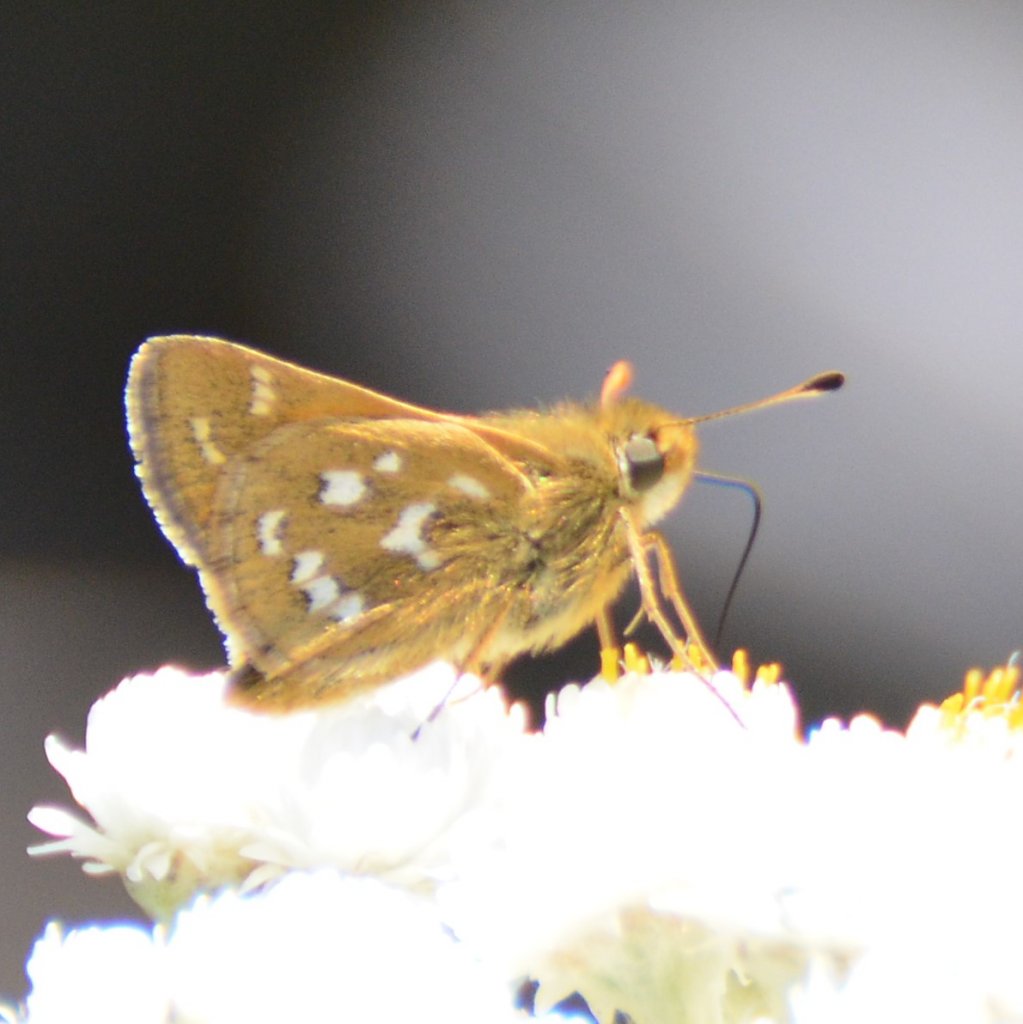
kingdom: Animalia
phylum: Arthropoda
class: Insecta
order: Lepidoptera
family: Hesperiidae
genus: Hesperia
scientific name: Hesperia comma
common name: Common Branded Skipper
